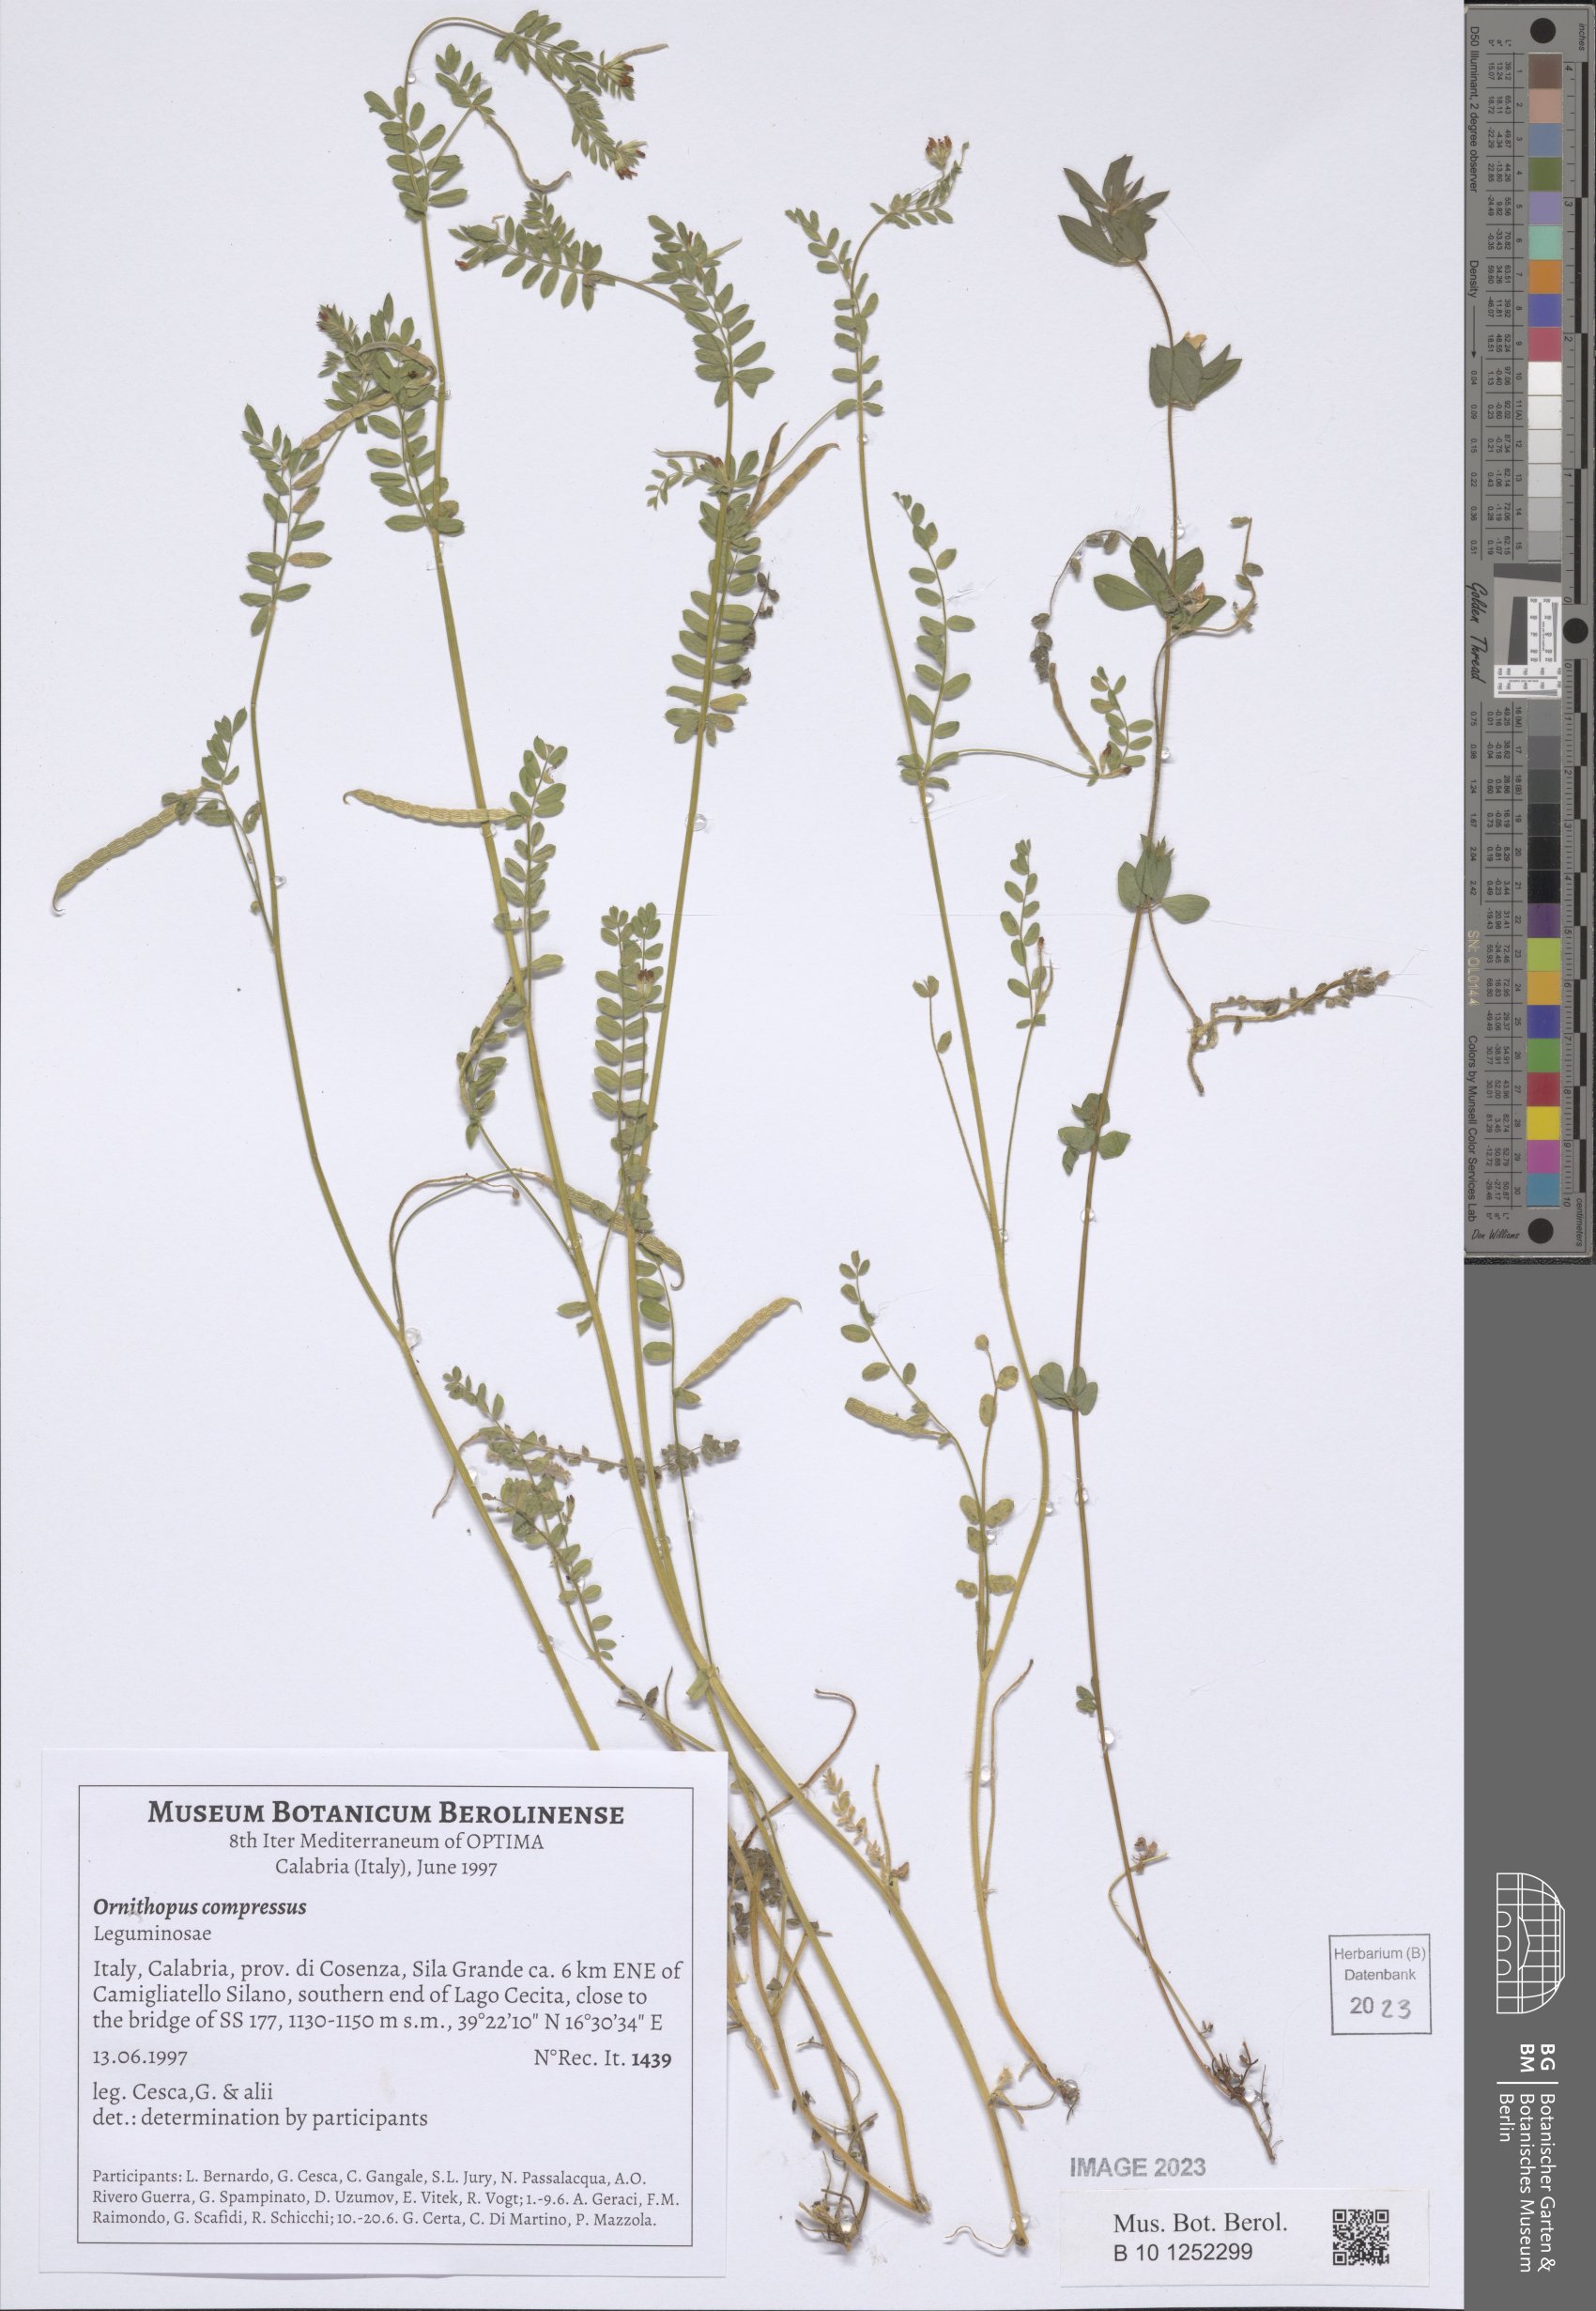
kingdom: Plantae
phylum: Tracheophyta
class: Magnoliopsida
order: Fabales
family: Fabaceae
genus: Ornithopus
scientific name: Ornithopus compressus
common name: Yellow serradella
